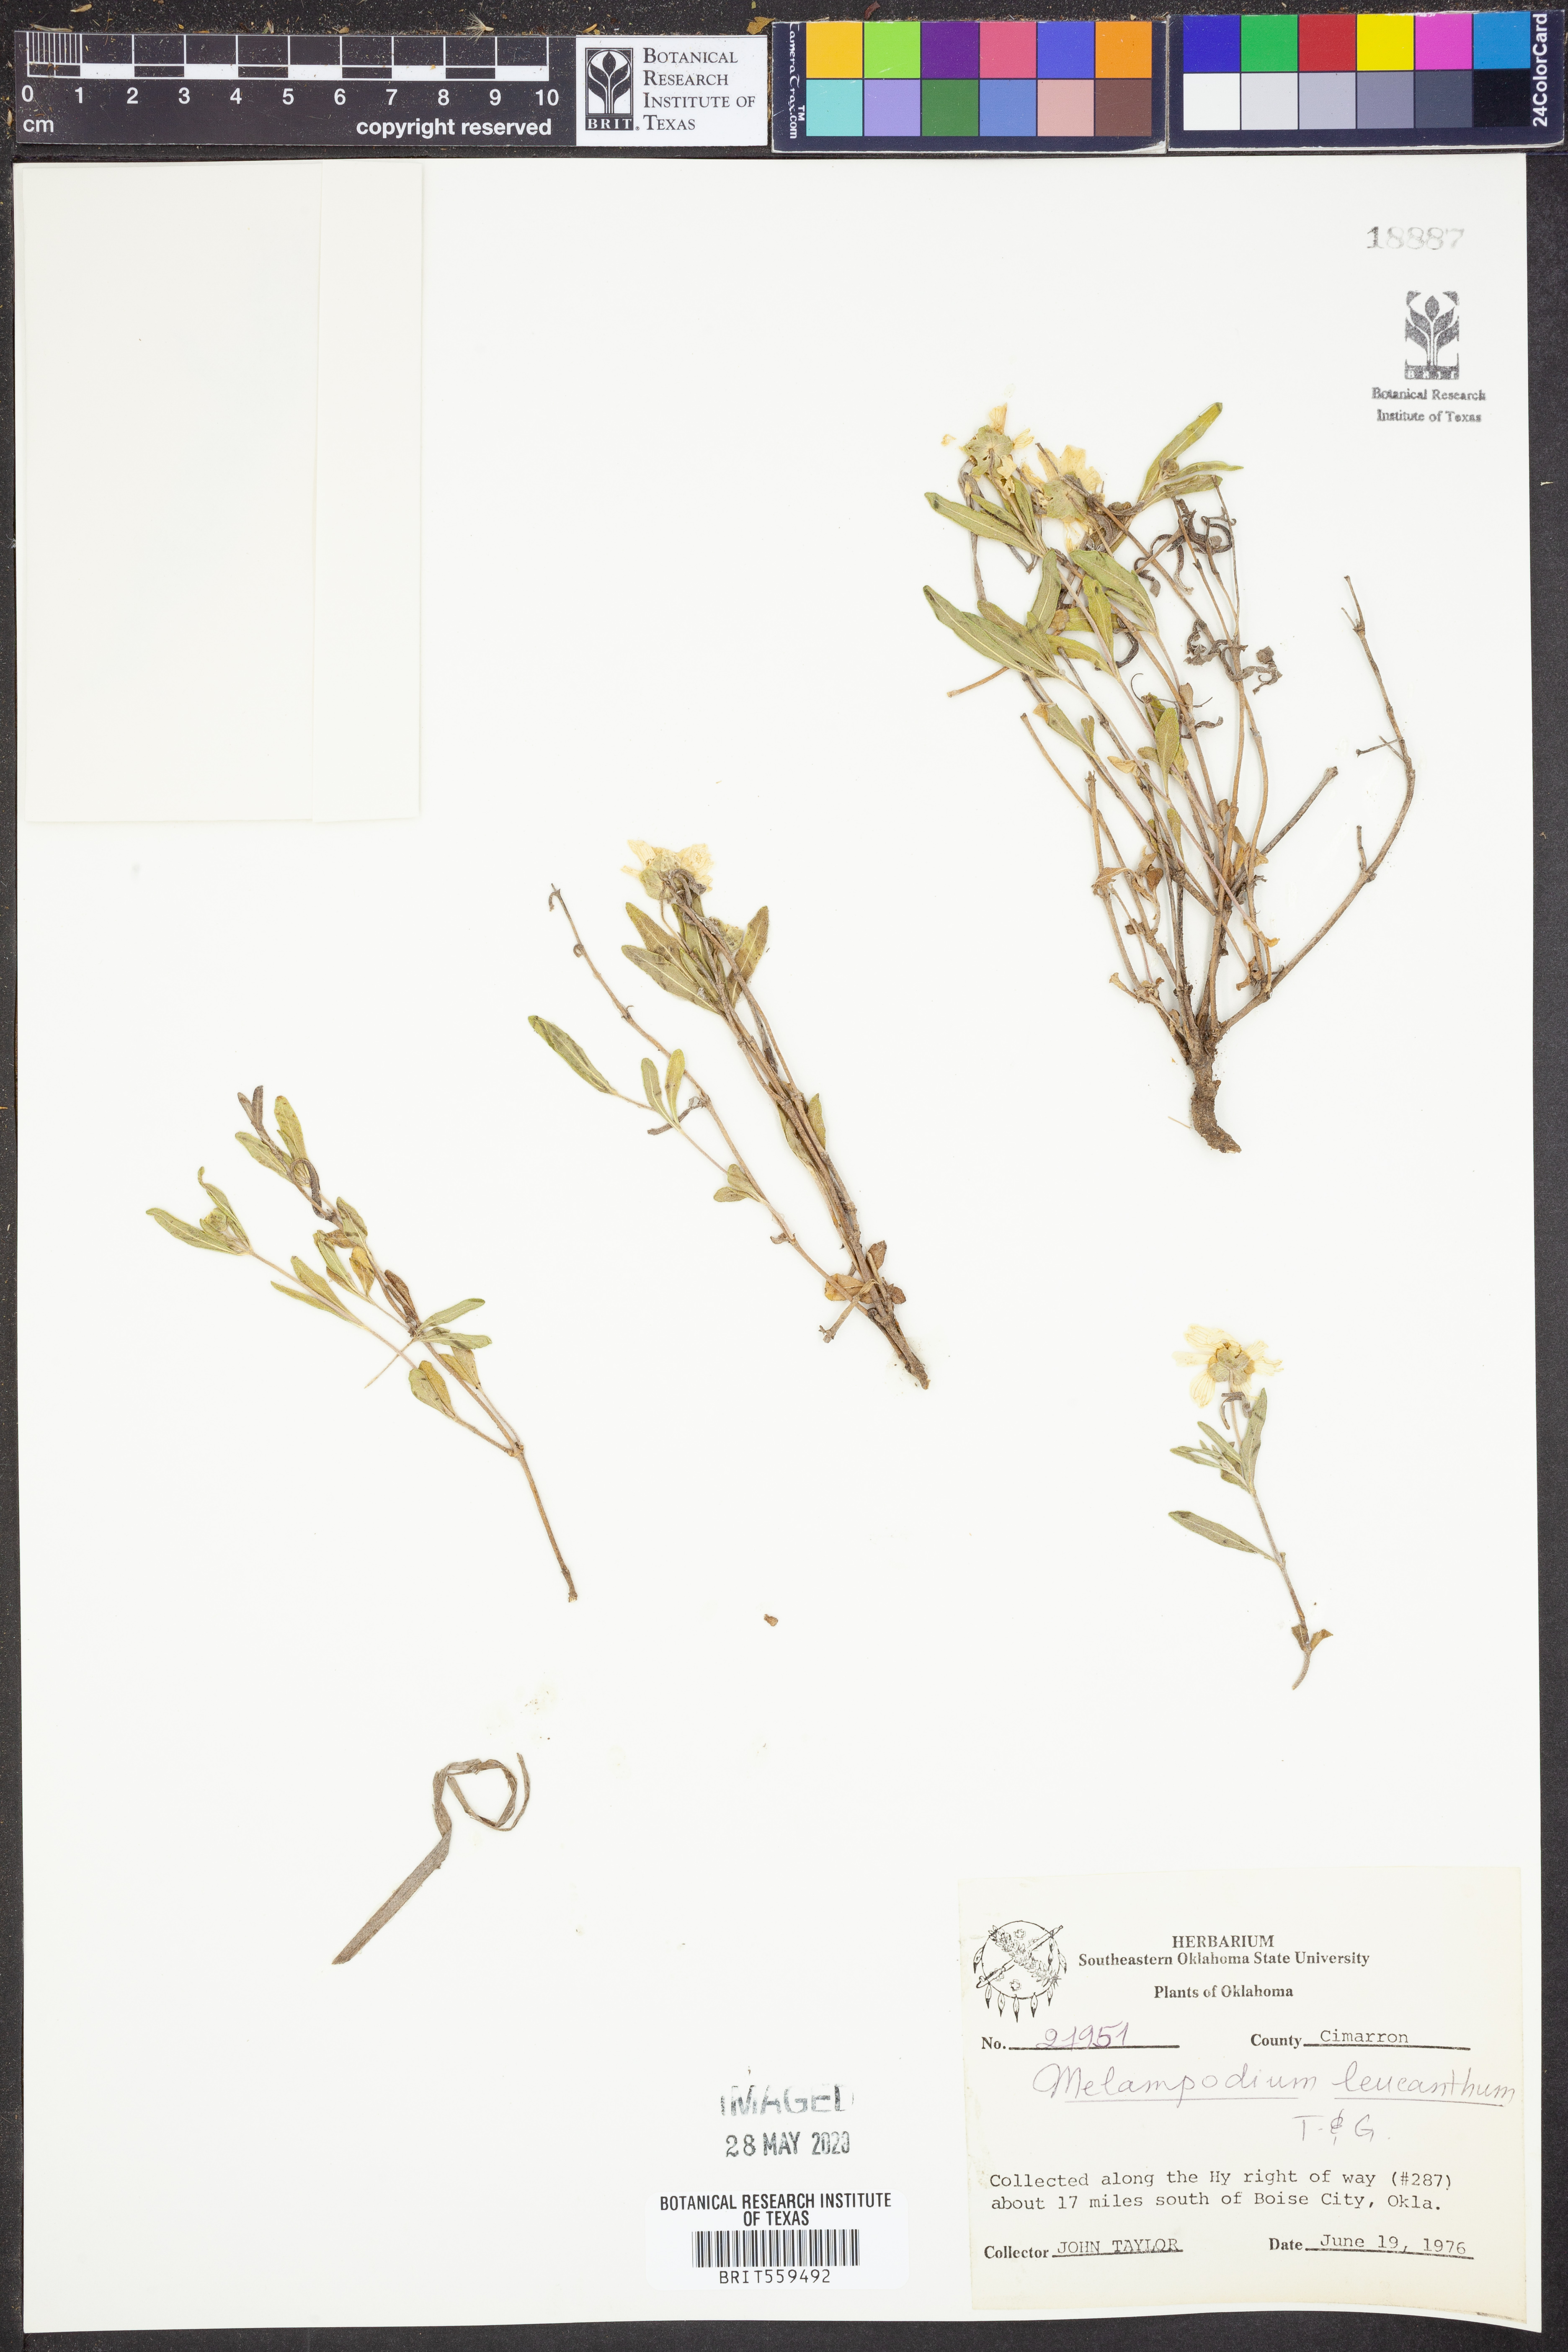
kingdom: Plantae
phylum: Tracheophyta
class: Magnoliopsida
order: Asterales
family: Asteraceae
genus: Melampodium
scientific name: Melampodium leucanthum
